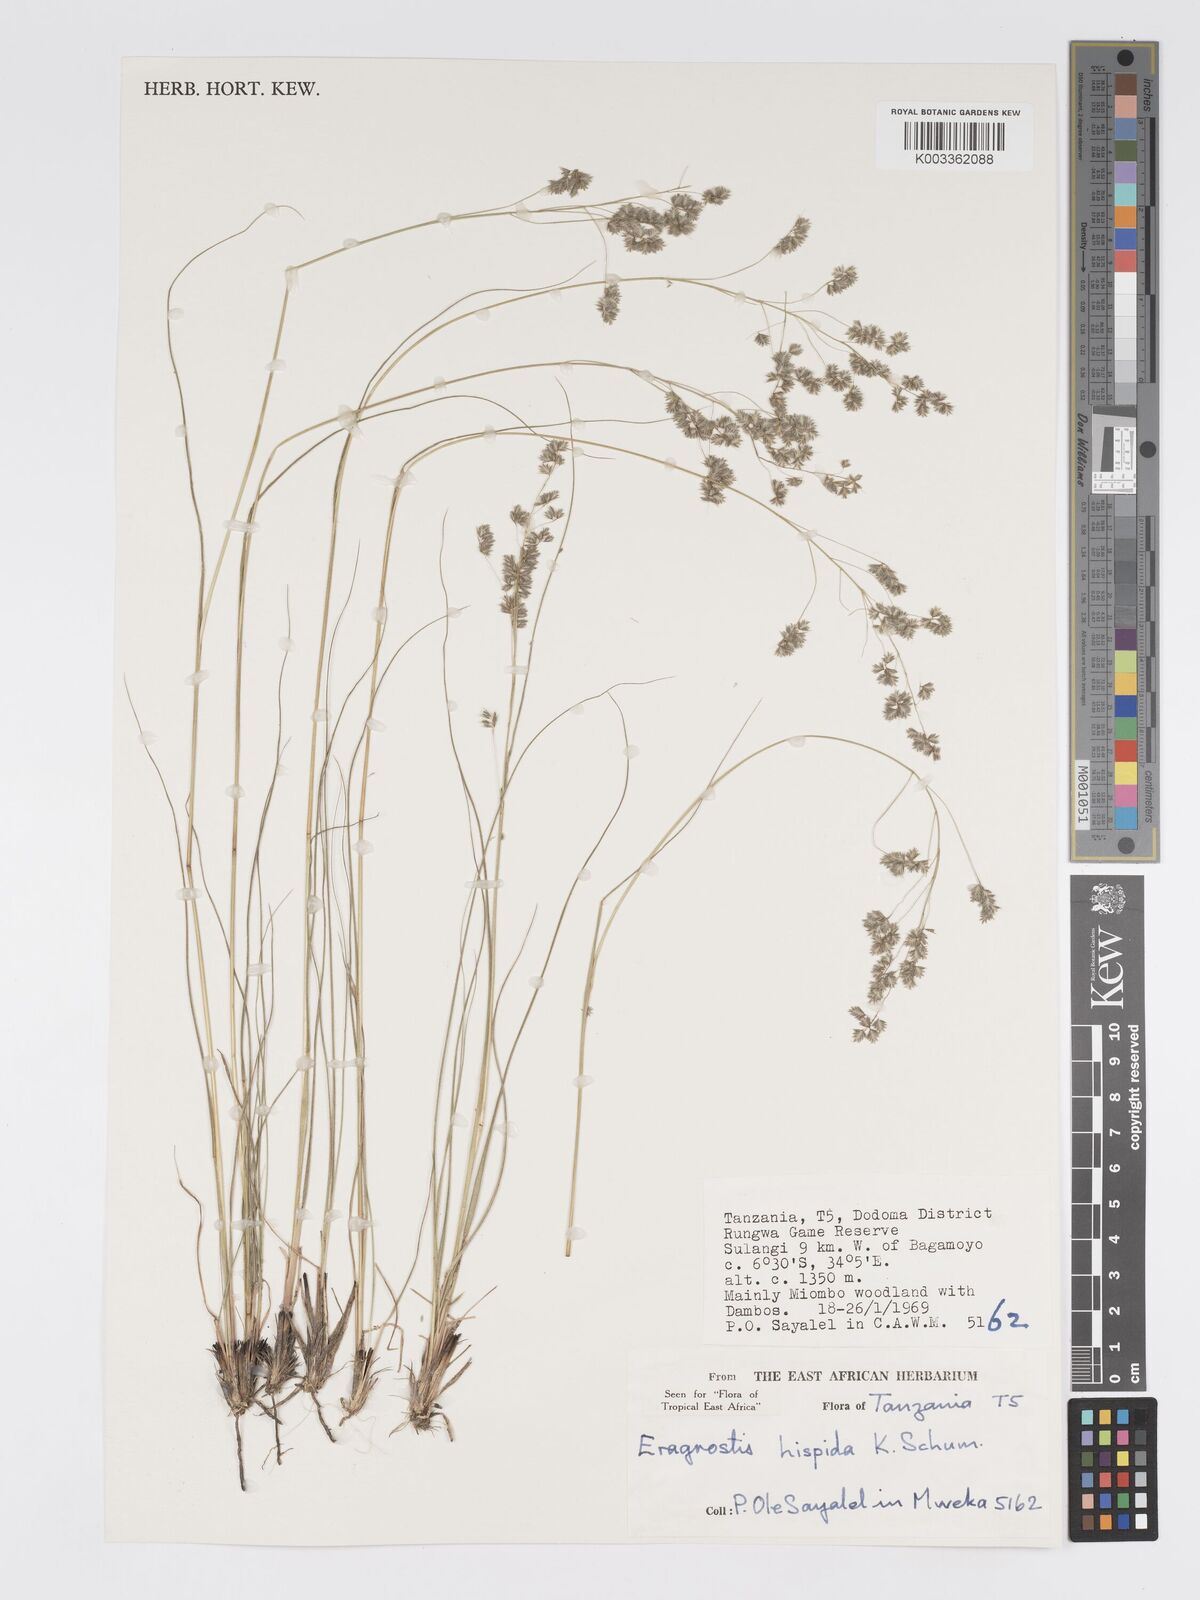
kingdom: Plantae
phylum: Tracheophyta
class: Liliopsida
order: Poales
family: Poaceae
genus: Eragrostis
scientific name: Eragrostis hispida
